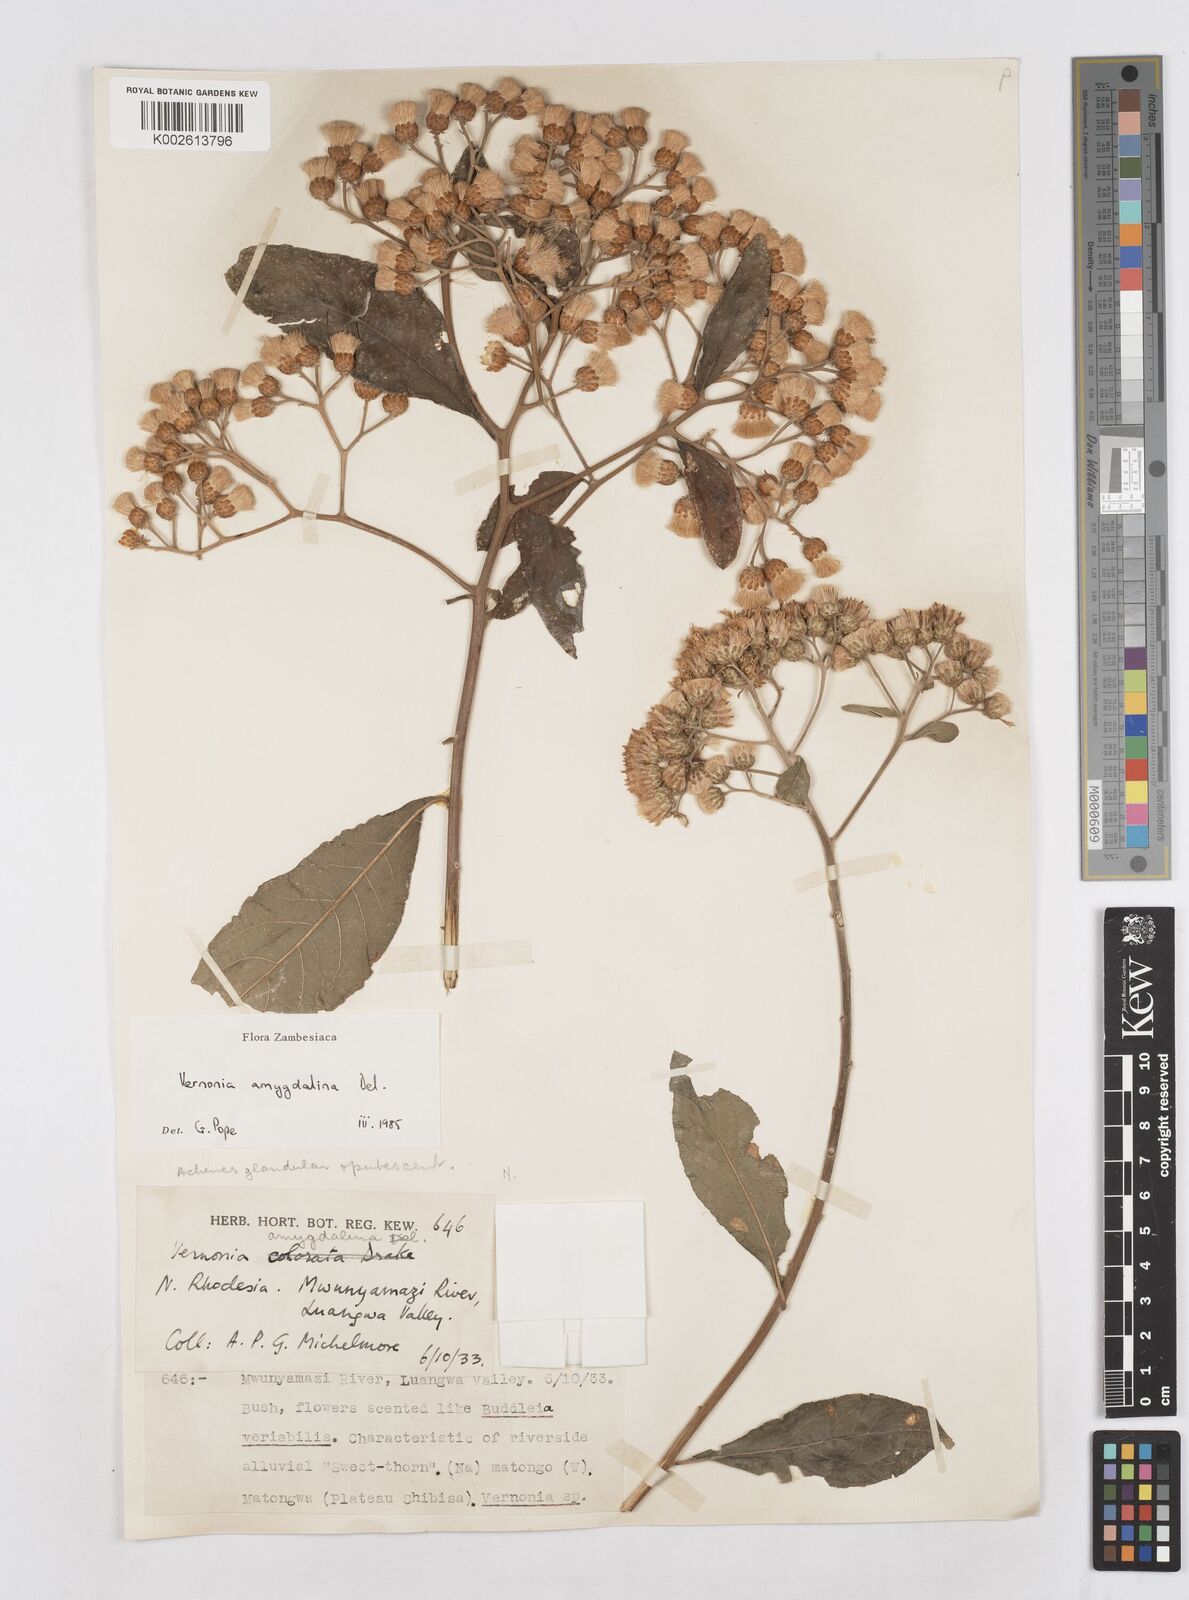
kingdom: Plantae
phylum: Tracheophyta
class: Magnoliopsida
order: Asterales
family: Asteraceae
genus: Gymnanthemum
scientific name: Gymnanthemum amygdalinum
